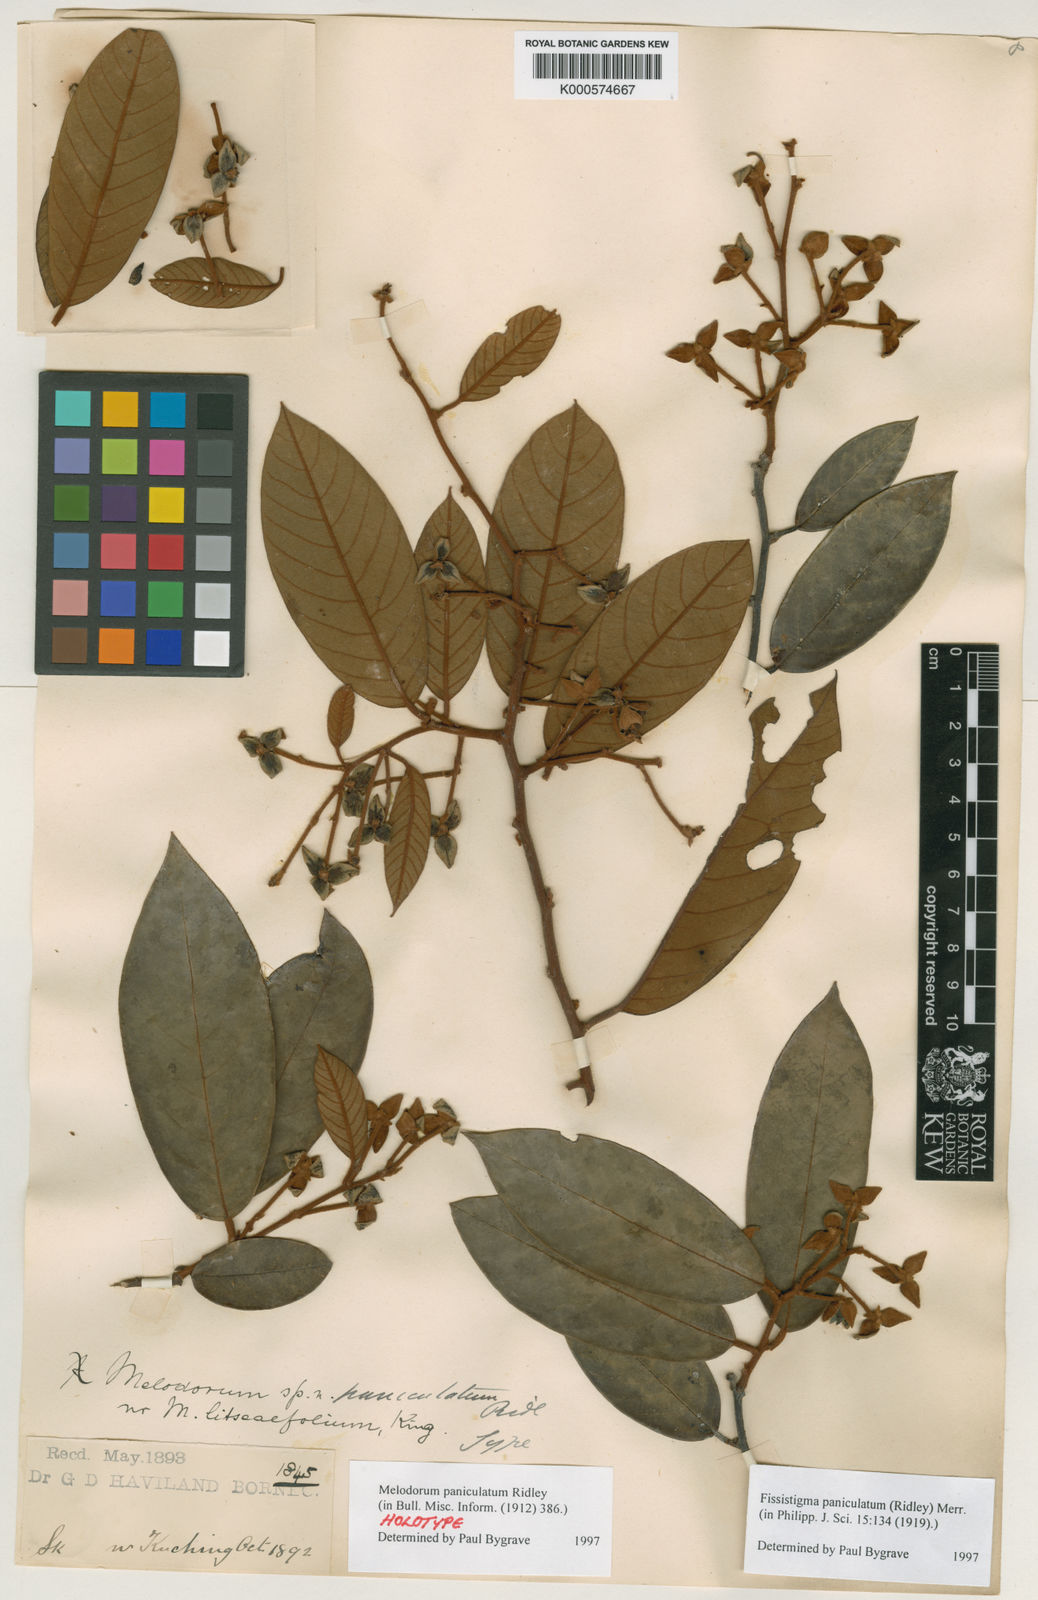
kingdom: Plantae
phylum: Tracheophyta
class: Magnoliopsida
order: Magnoliales
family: Annonaceae
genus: Fissistigma
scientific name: Fissistigma paniculatum
